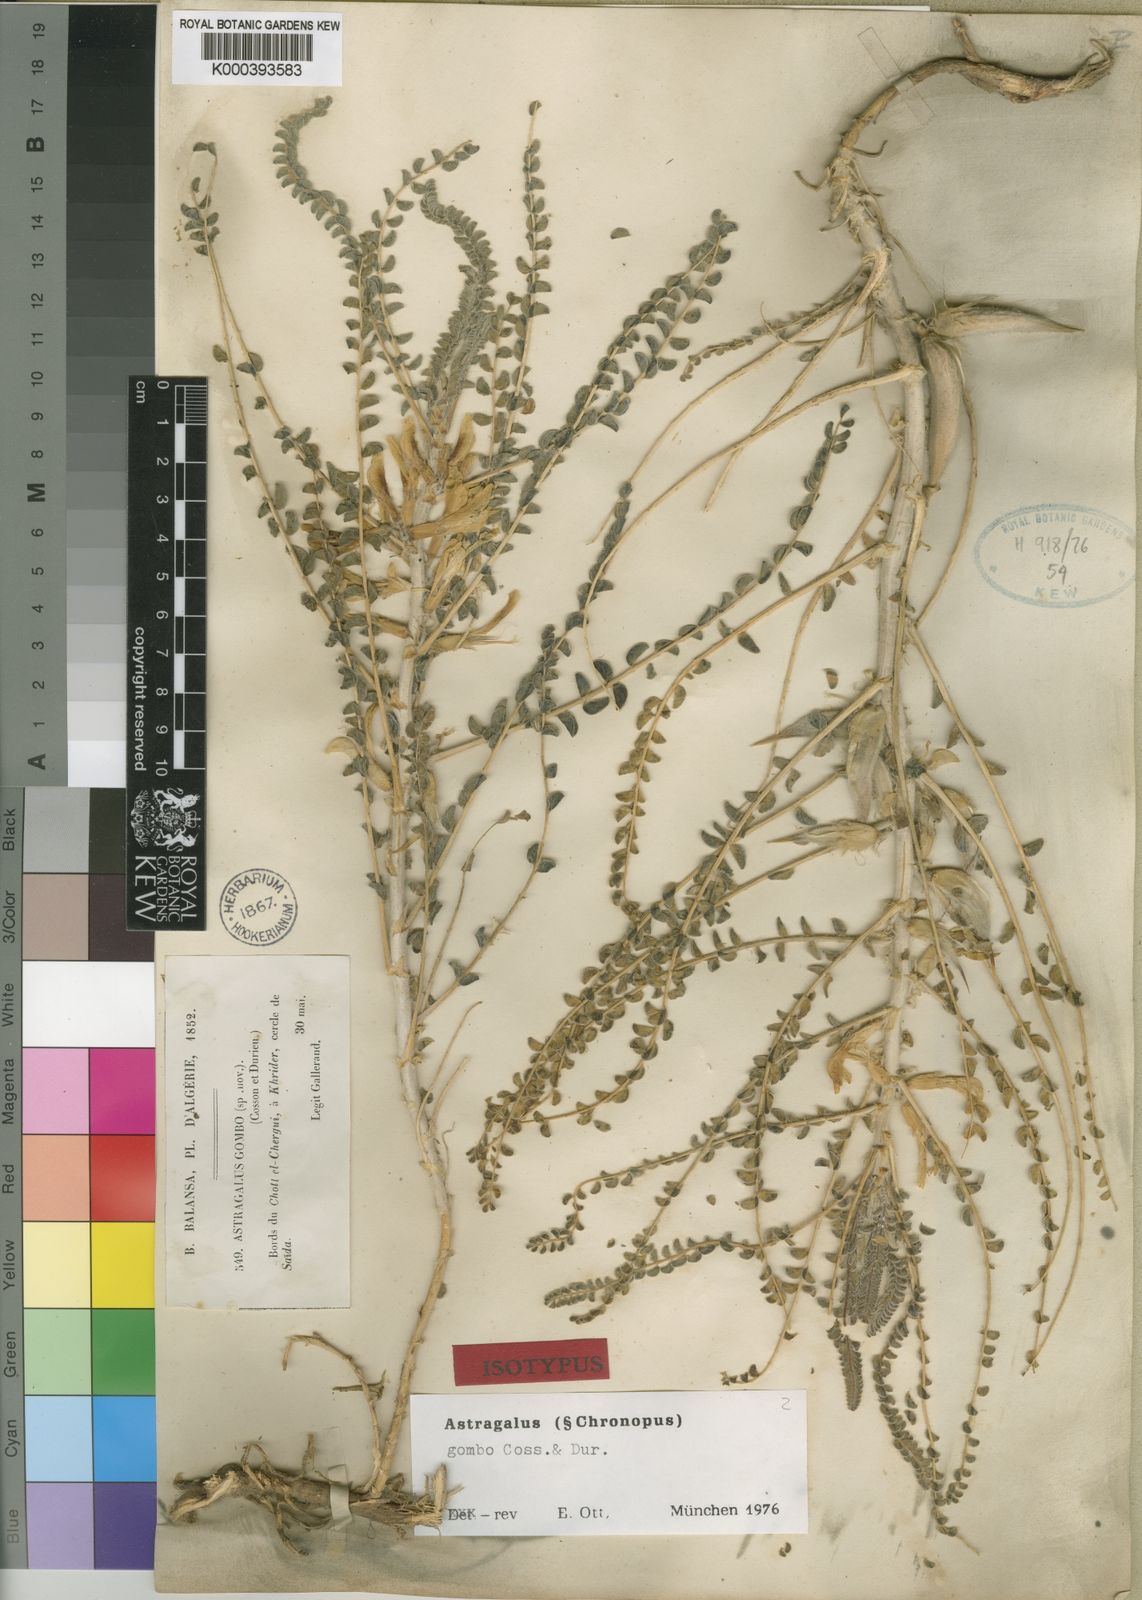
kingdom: Plantae
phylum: Tracheophyta
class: Magnoliopsida
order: Fabales
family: Fabaceae
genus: Astragalus
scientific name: Astragalus
